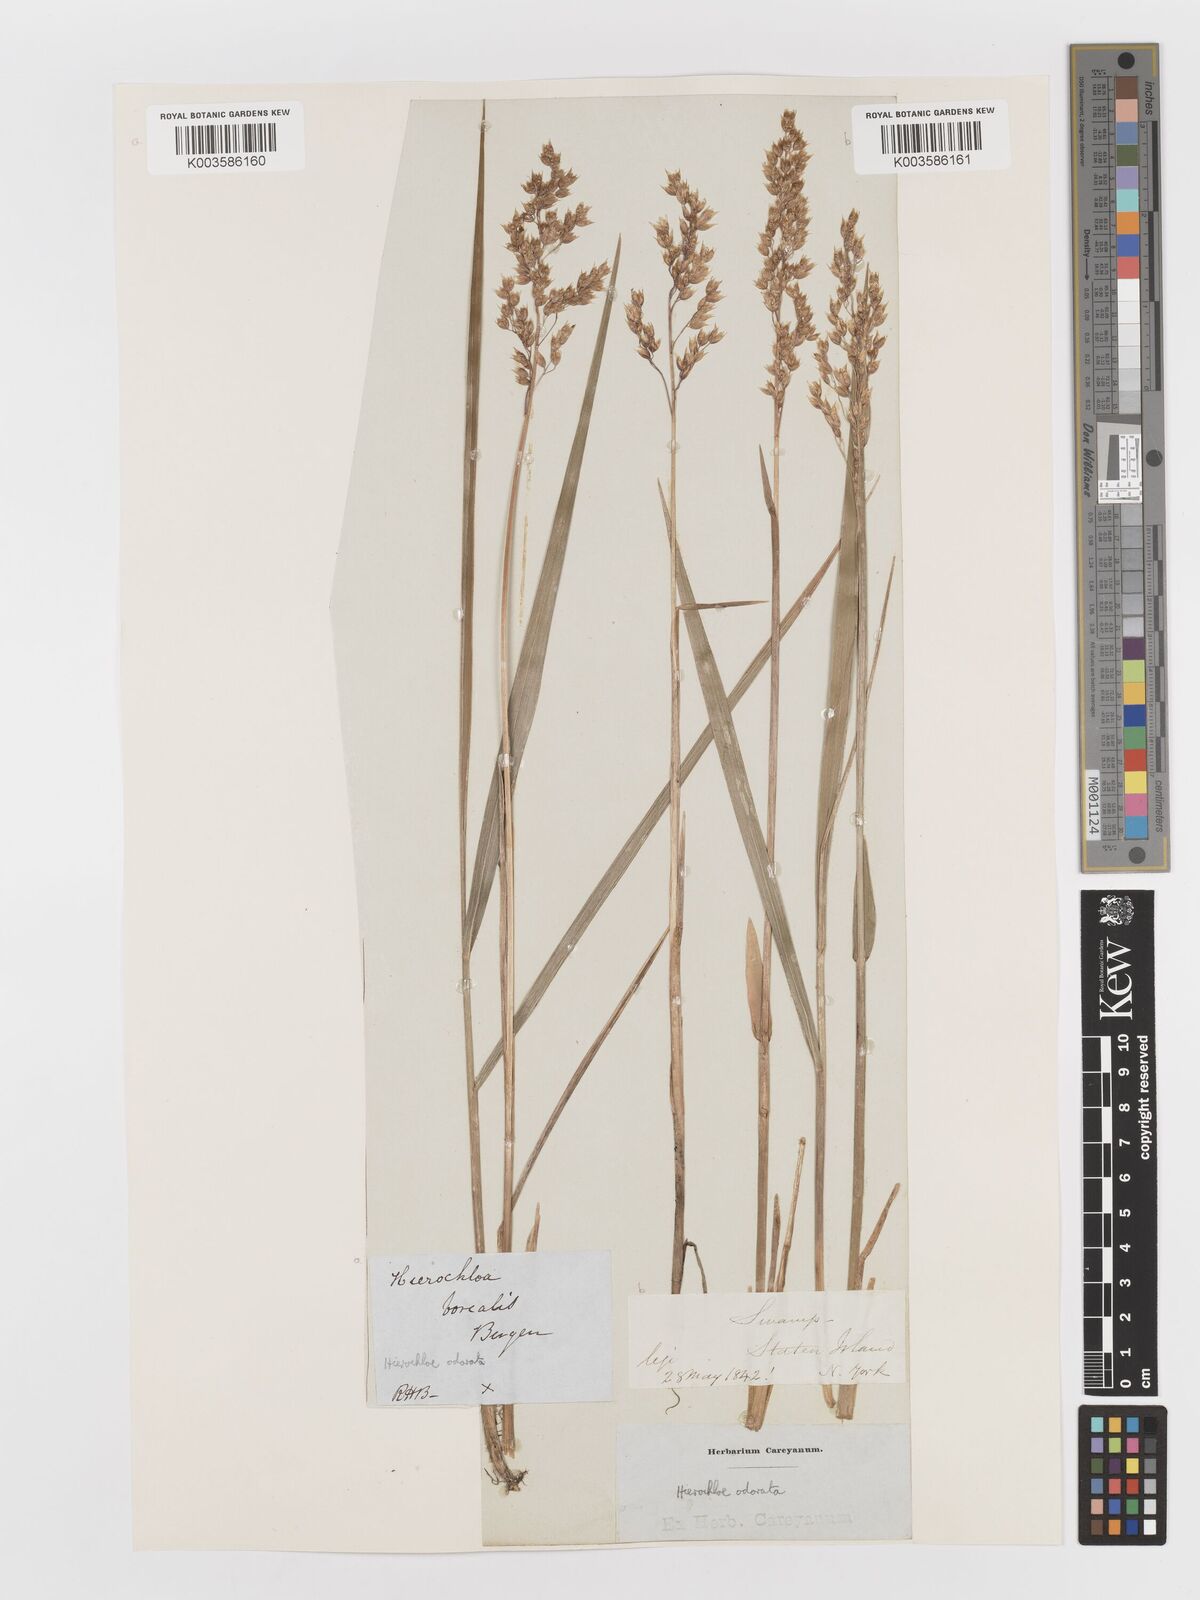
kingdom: Plantae
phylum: Tracheophyta
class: Liliopsida
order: Poales
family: Poaceae
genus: Anthoxanthum
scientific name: Anthoxanthum nitens
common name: Holy grass
